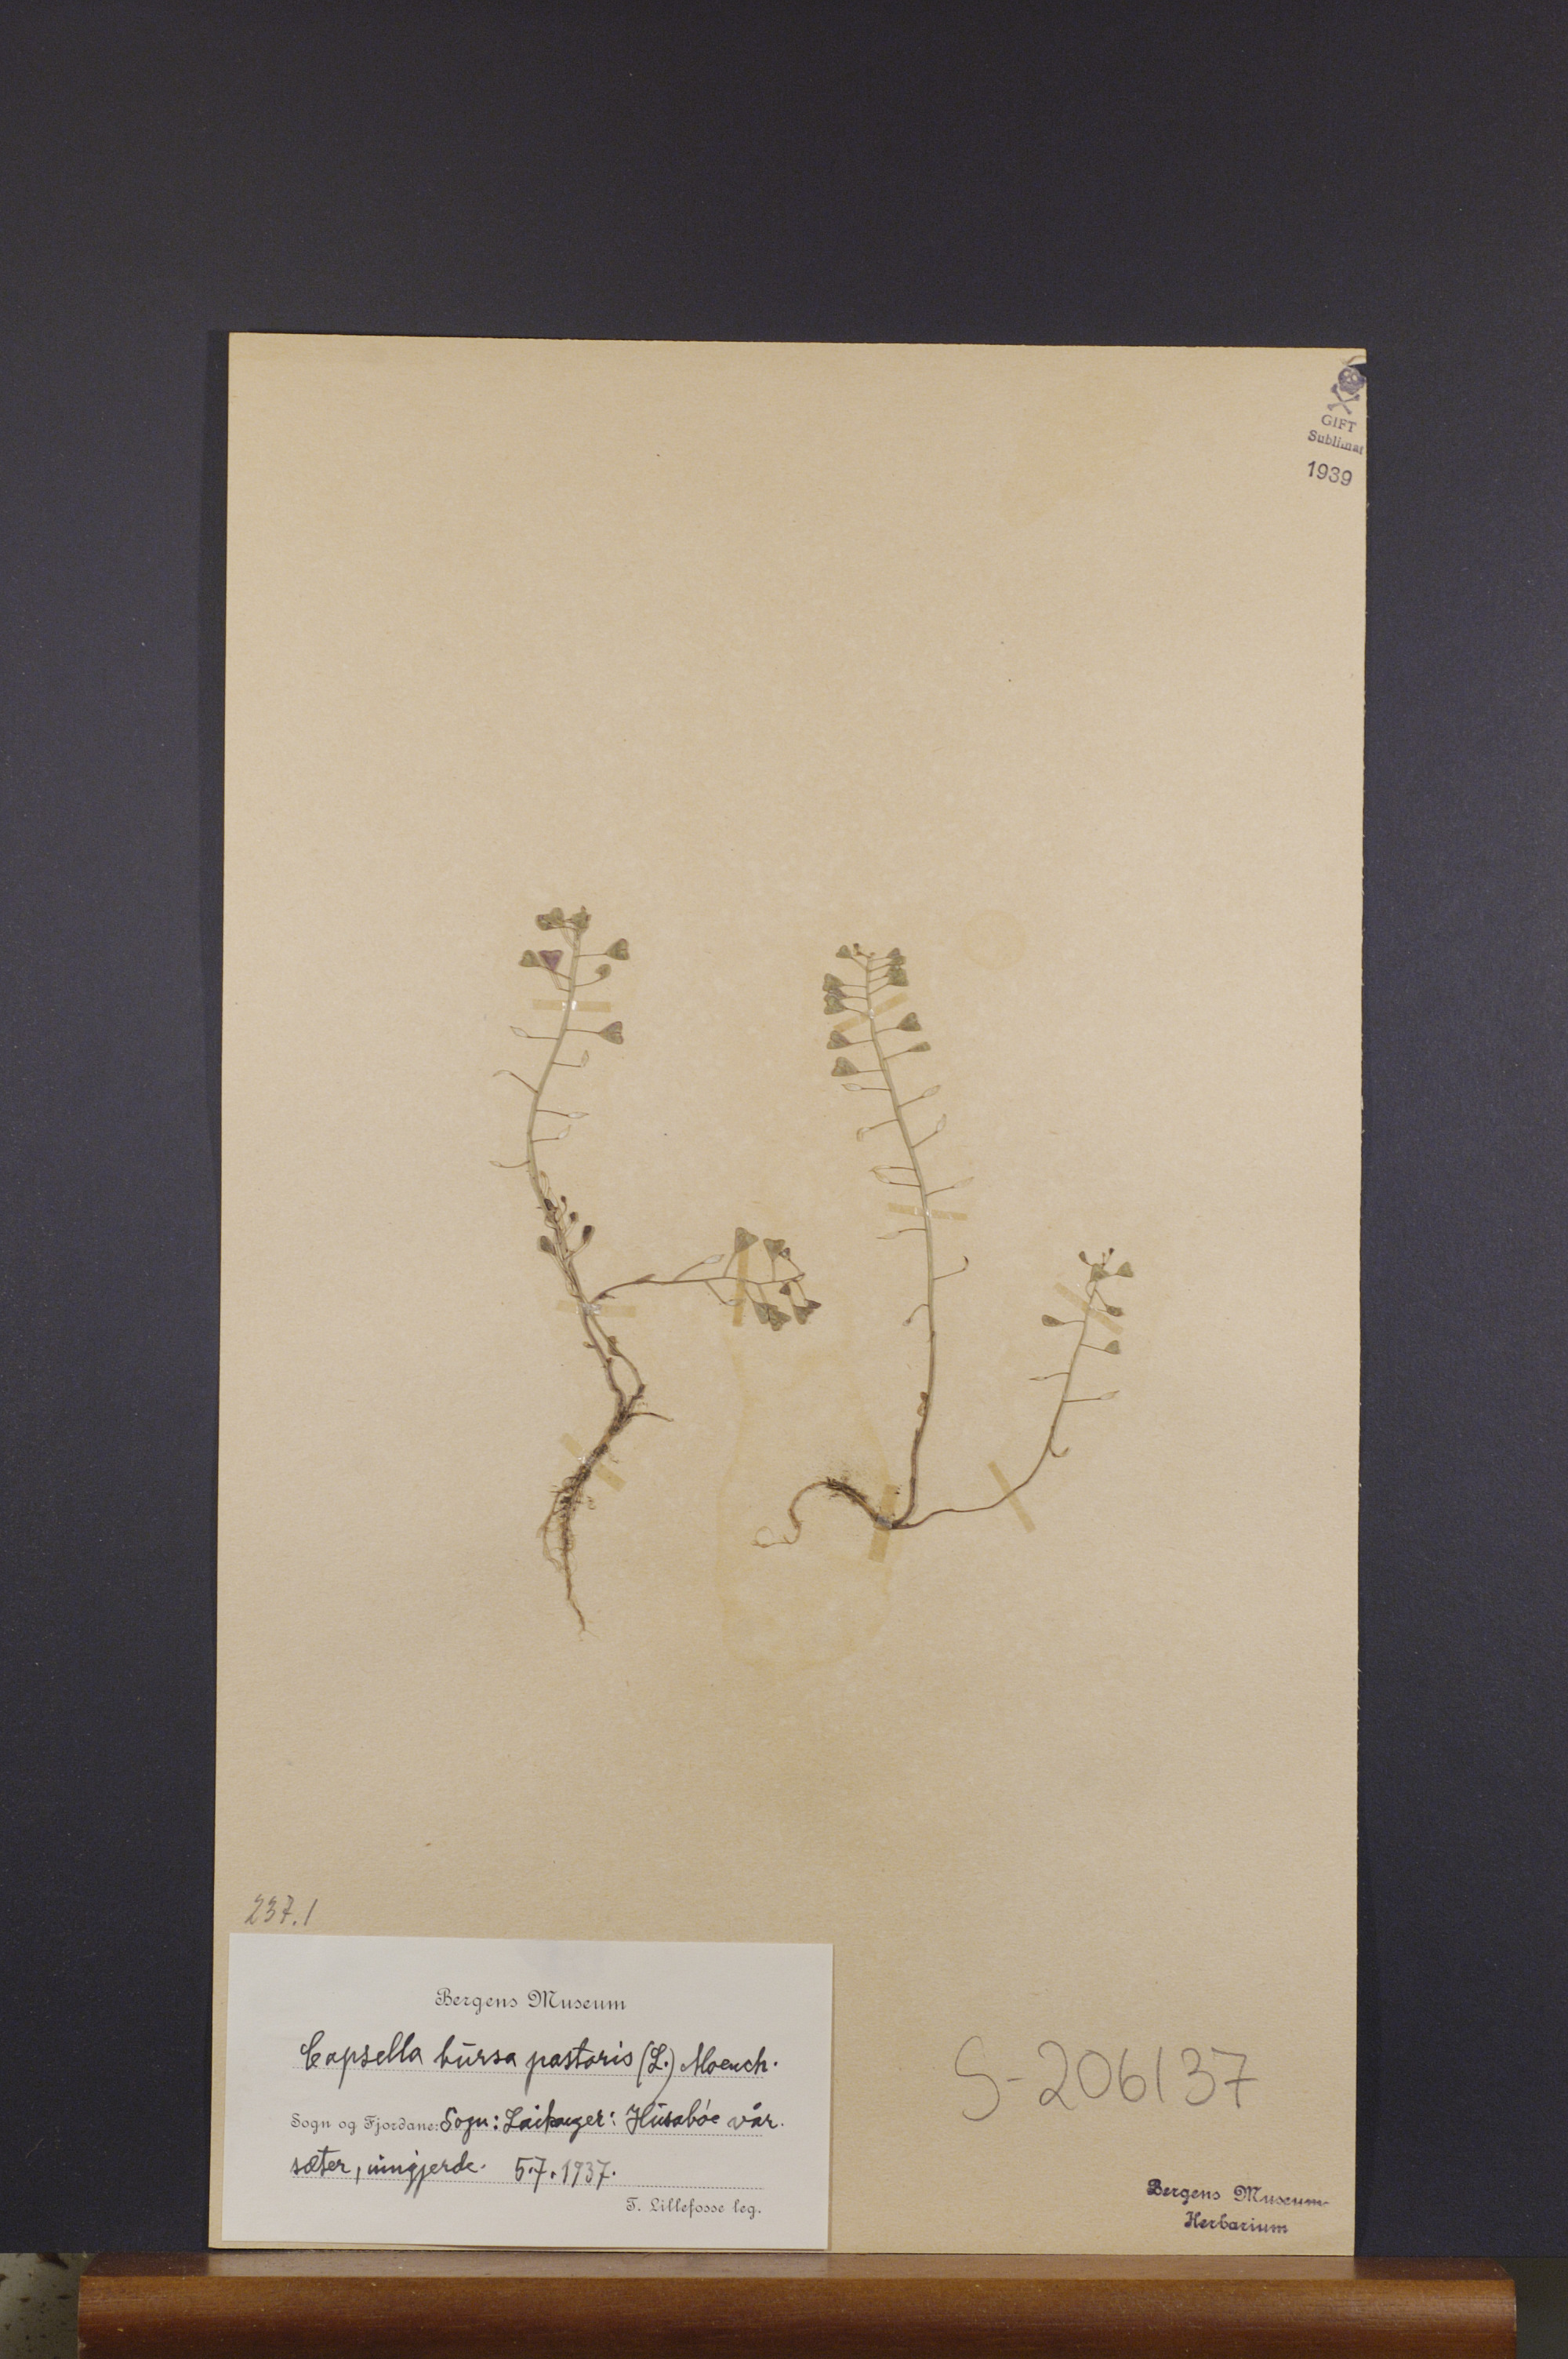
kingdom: Plantae
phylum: Tracheophyta
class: Magnoliopsida
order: Brassicales
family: Brassicaceae
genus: Capsella
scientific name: Capsella bursa-pastoris
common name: Shepherd's purse
